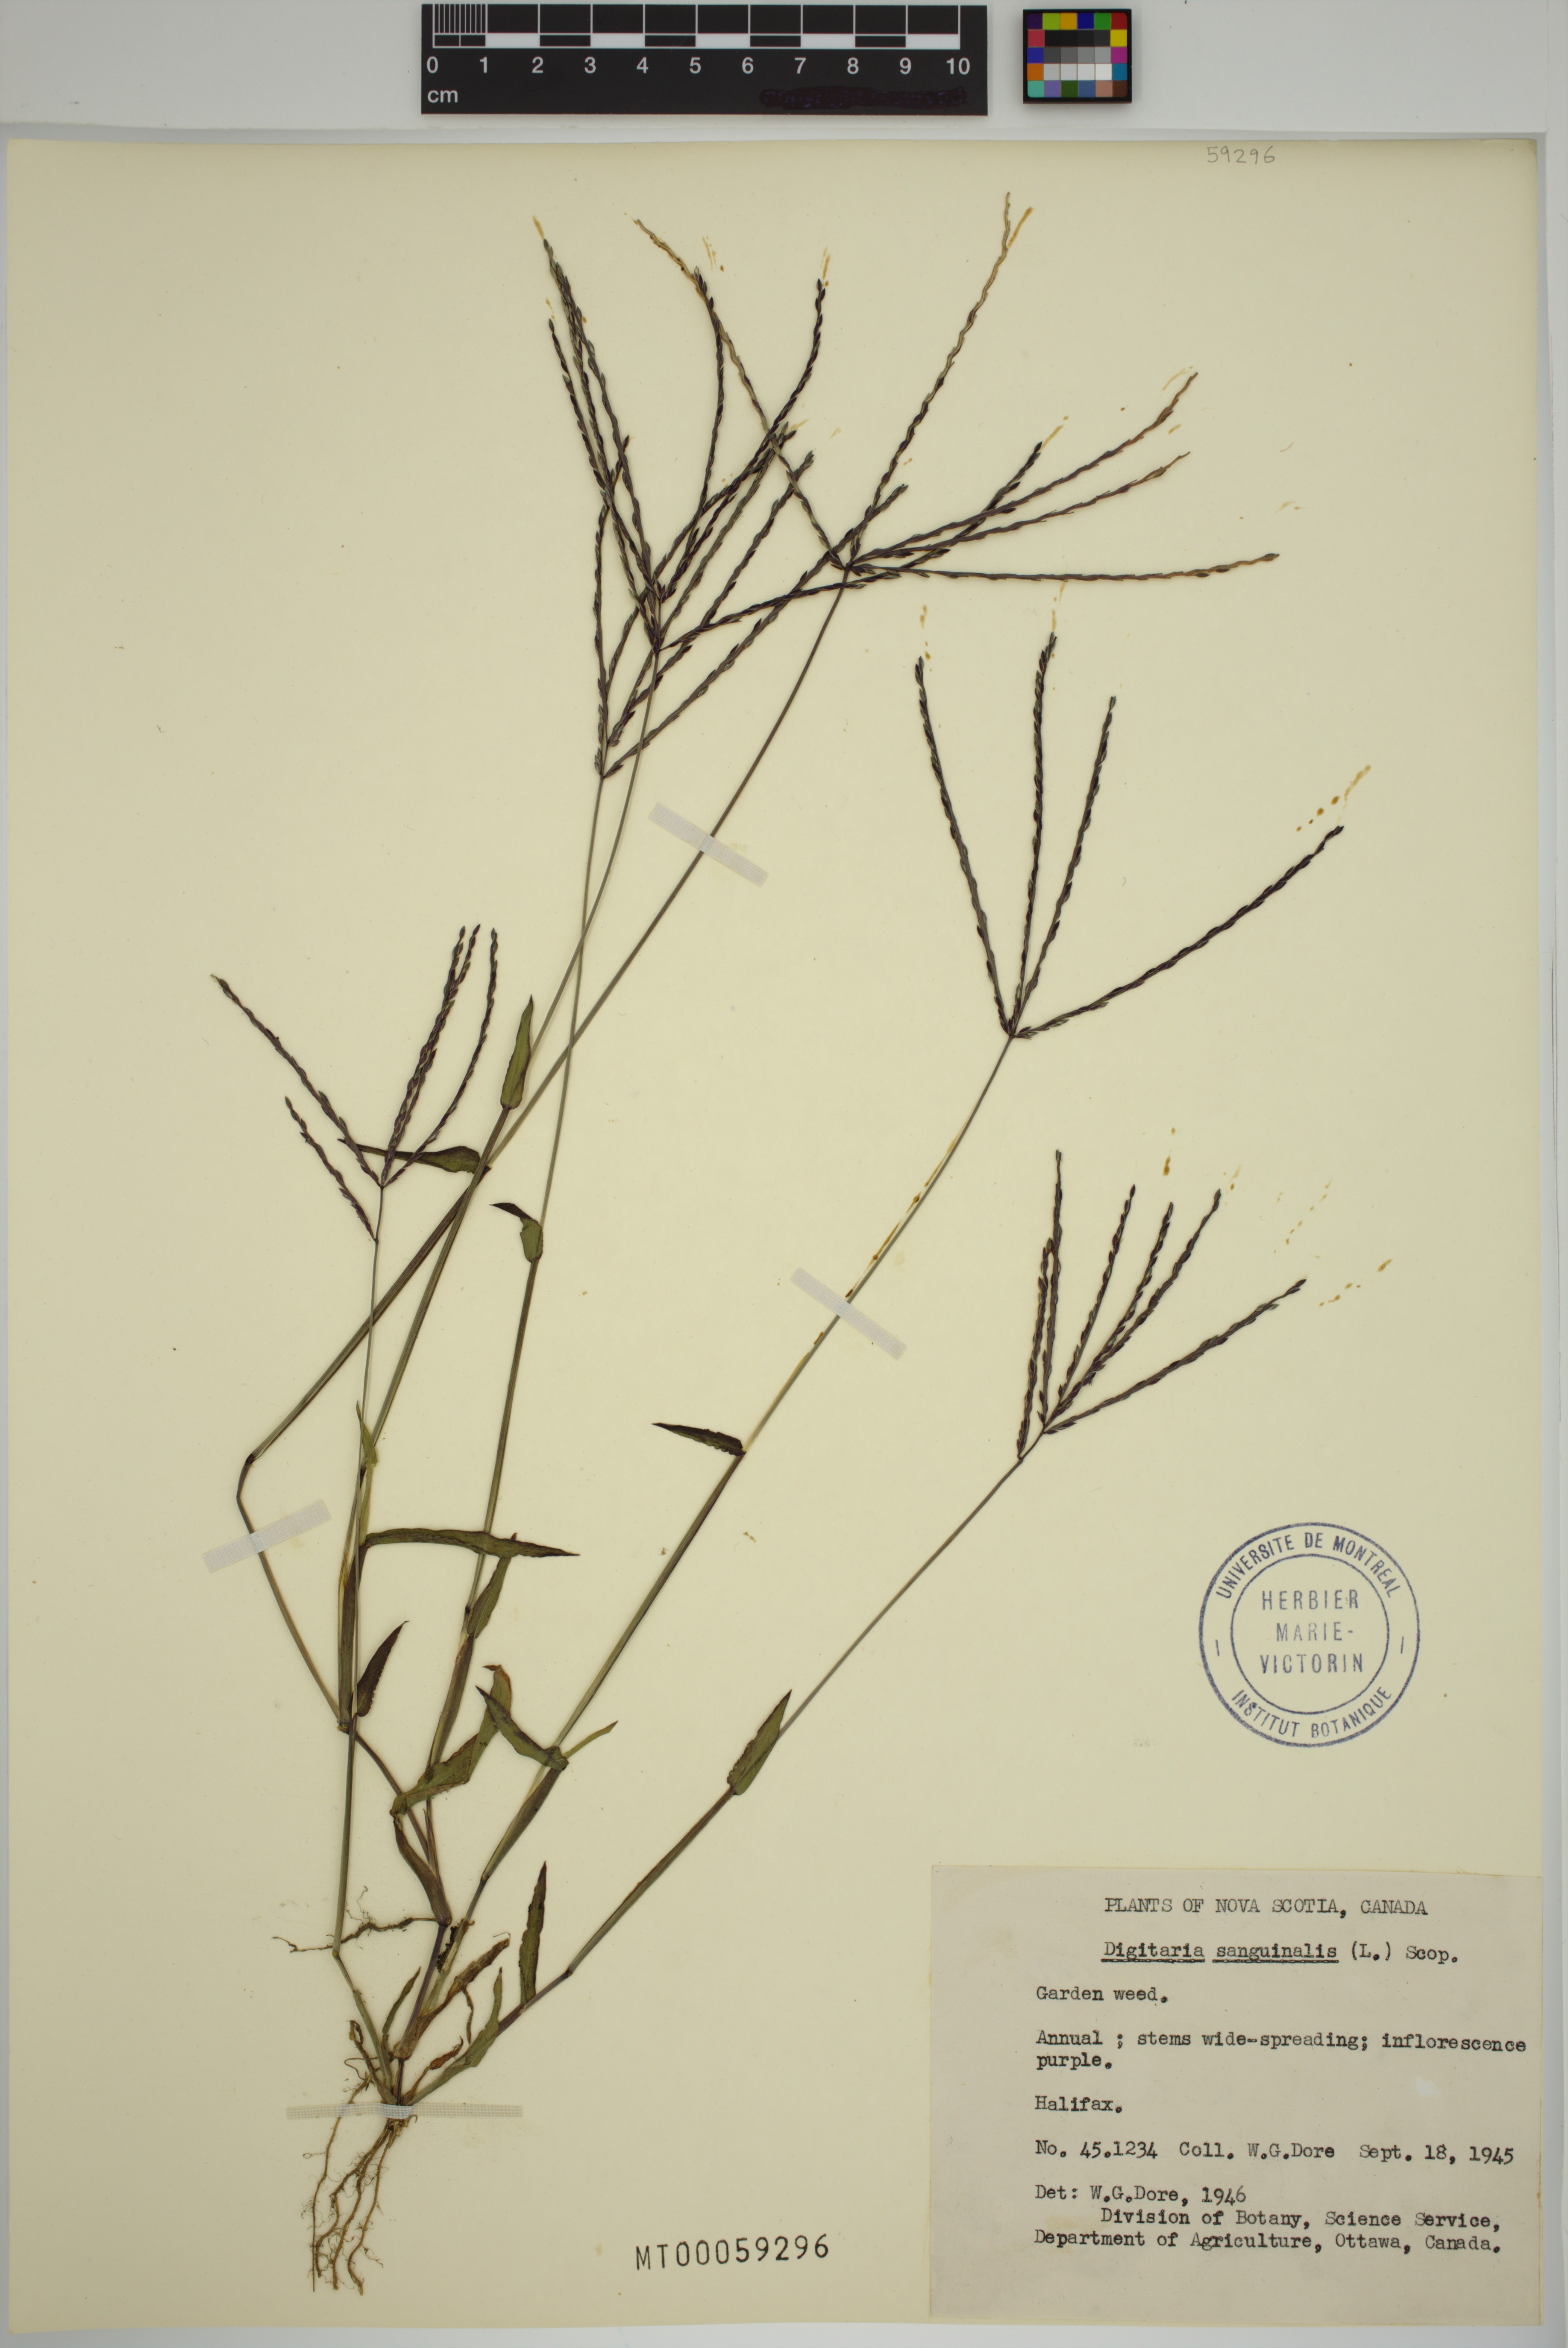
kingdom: Plantae
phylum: Tracheophyta
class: Liliopsida
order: Poales
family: Poaceae
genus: Digitaria
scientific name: Digitaria sanguinalis
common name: Hairy crabgrass
